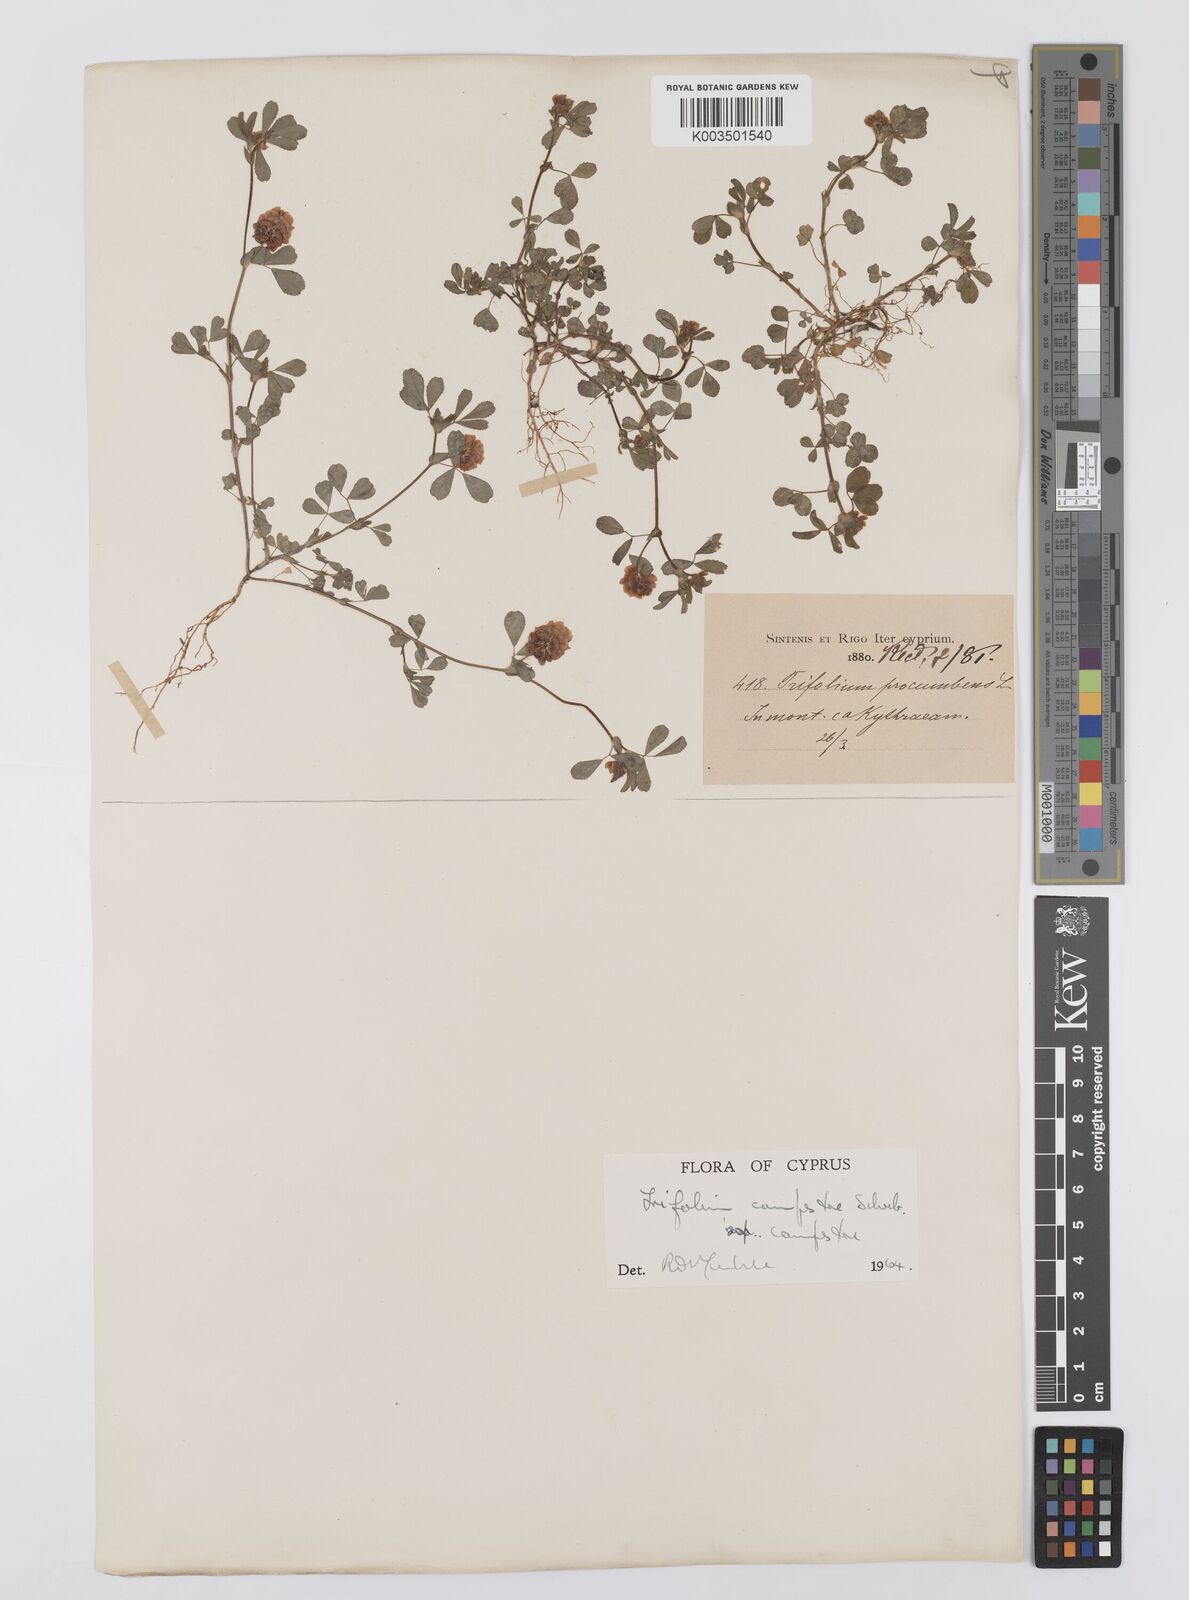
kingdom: Plantae
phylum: Tracheophyta
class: Magnoliopsida
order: Fabales
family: Fabaceae
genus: Trifolium
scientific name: Trifolium campestre
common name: Field clover
